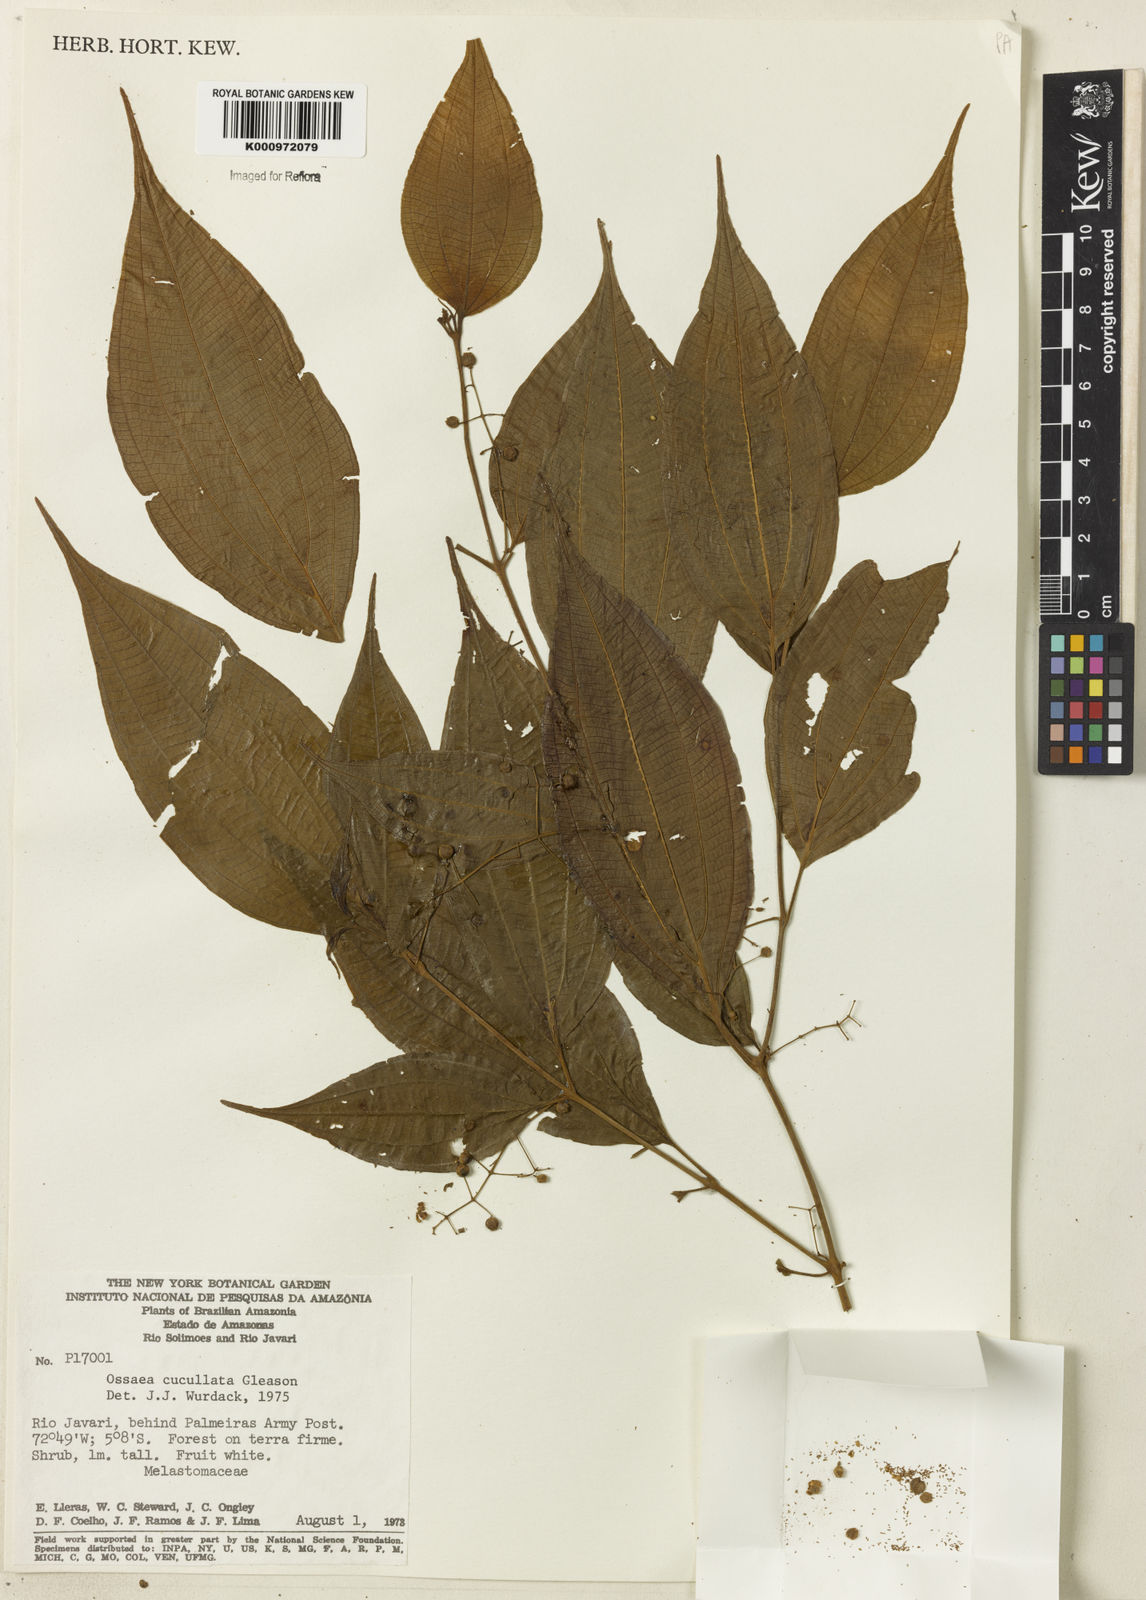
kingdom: Plantae
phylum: Tracheophyta
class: Magnoliopsida
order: Myrtales
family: Melastomataceae
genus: Miconia
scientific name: Miconia cucullata
